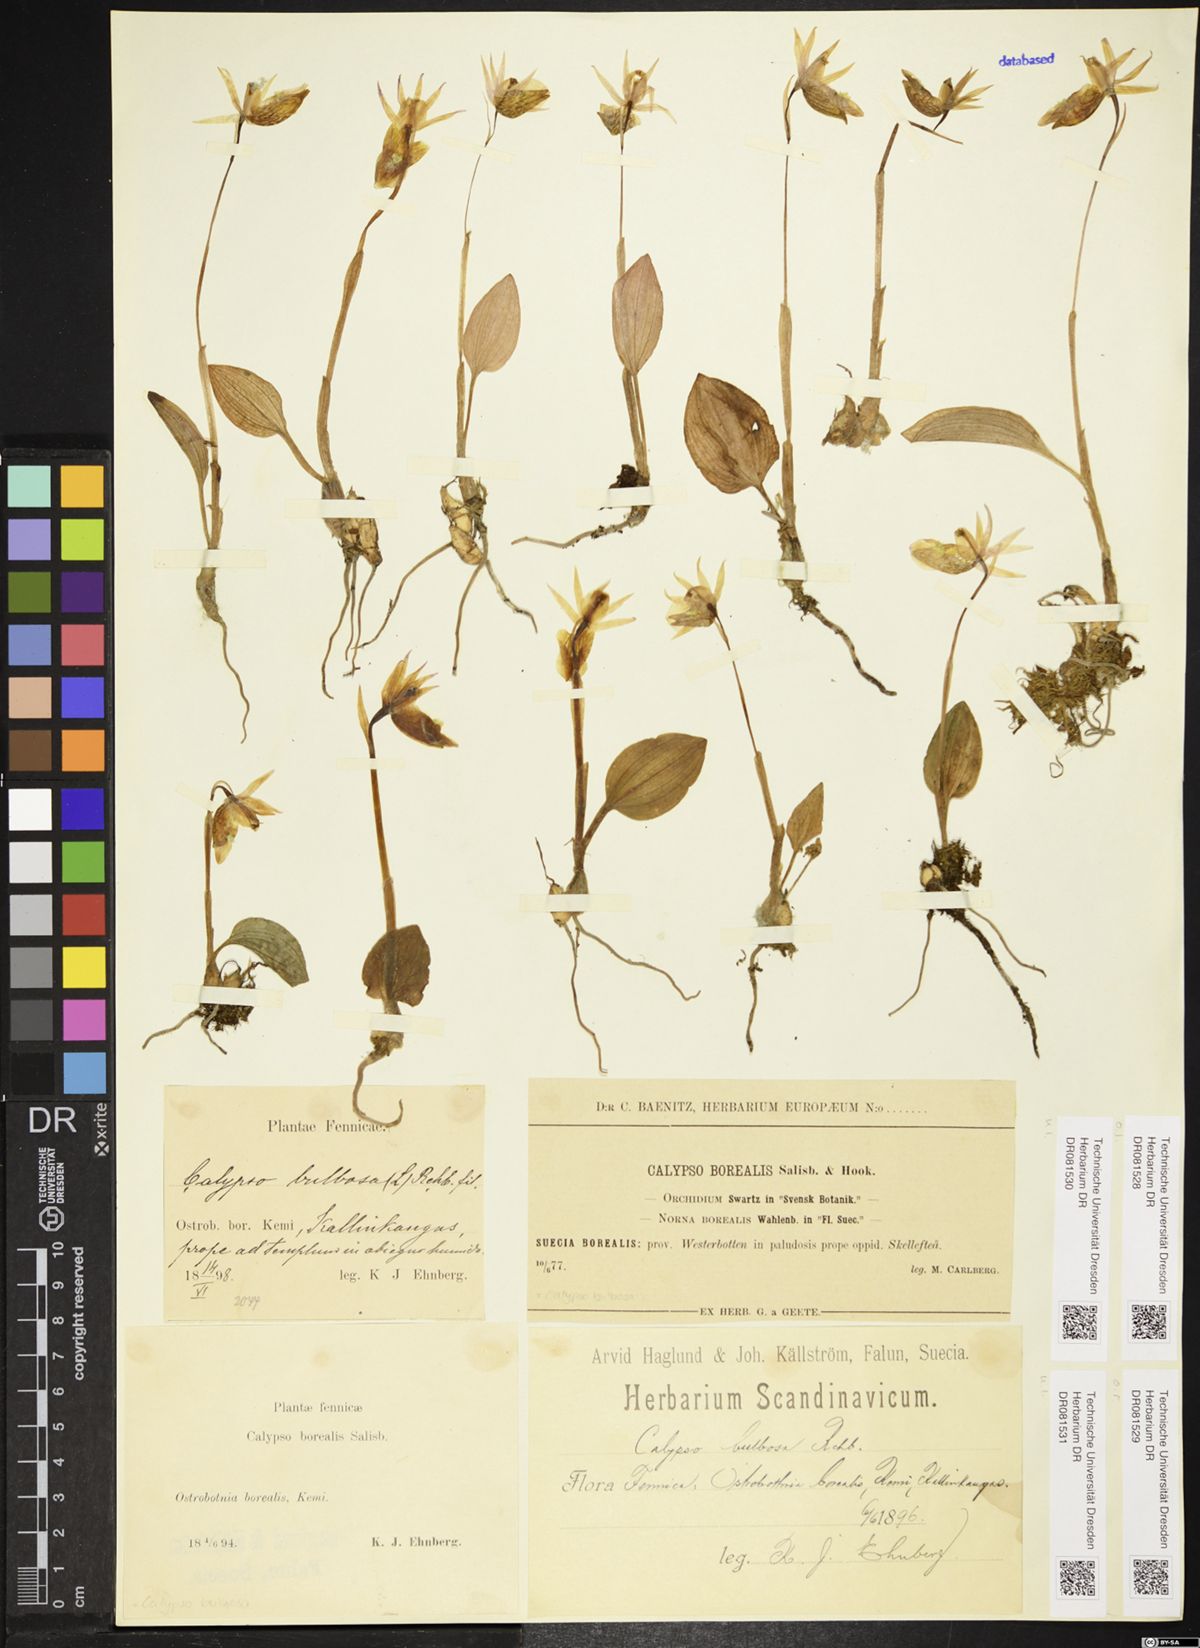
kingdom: Plantae
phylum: Tracheophyta
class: Liliopsida
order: Asparagales
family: Orchidaceae
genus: Calypso
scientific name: Calypso bulbosa
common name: Calypso
